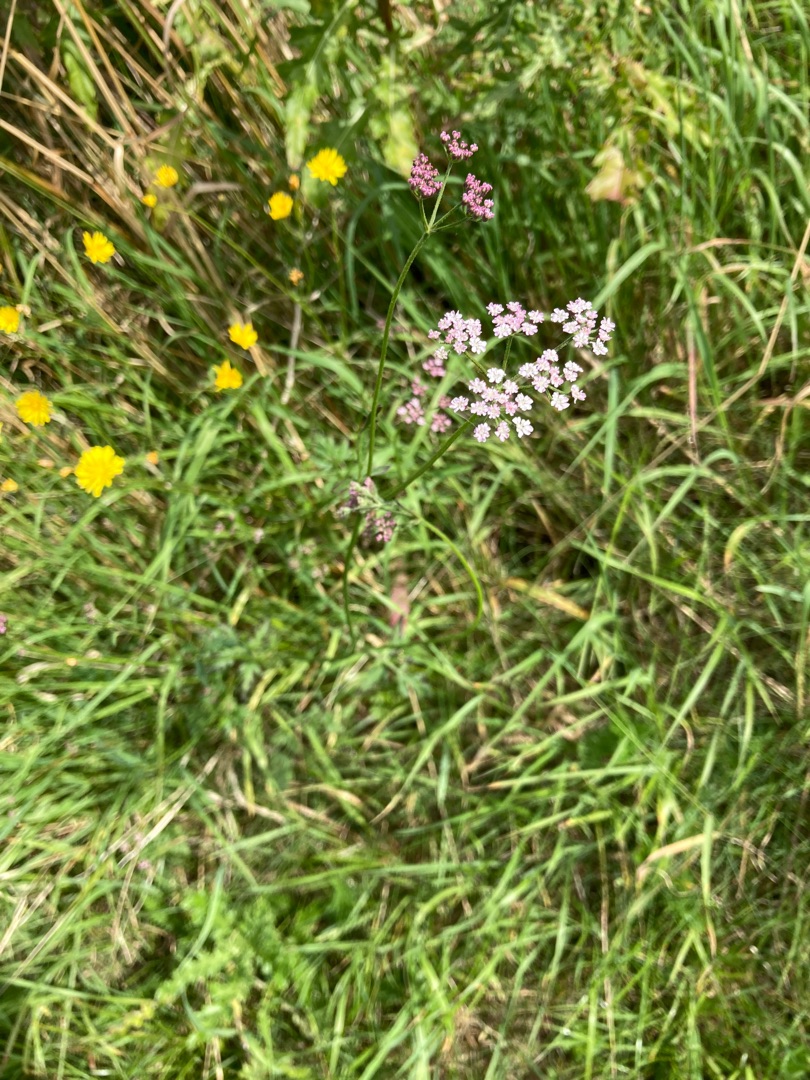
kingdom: Plantae
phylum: Tracheophyta
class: Magnoliopsida
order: Apiales
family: Apiaceae
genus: Torilis
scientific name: Torilis japonica
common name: Hvas randfrø
